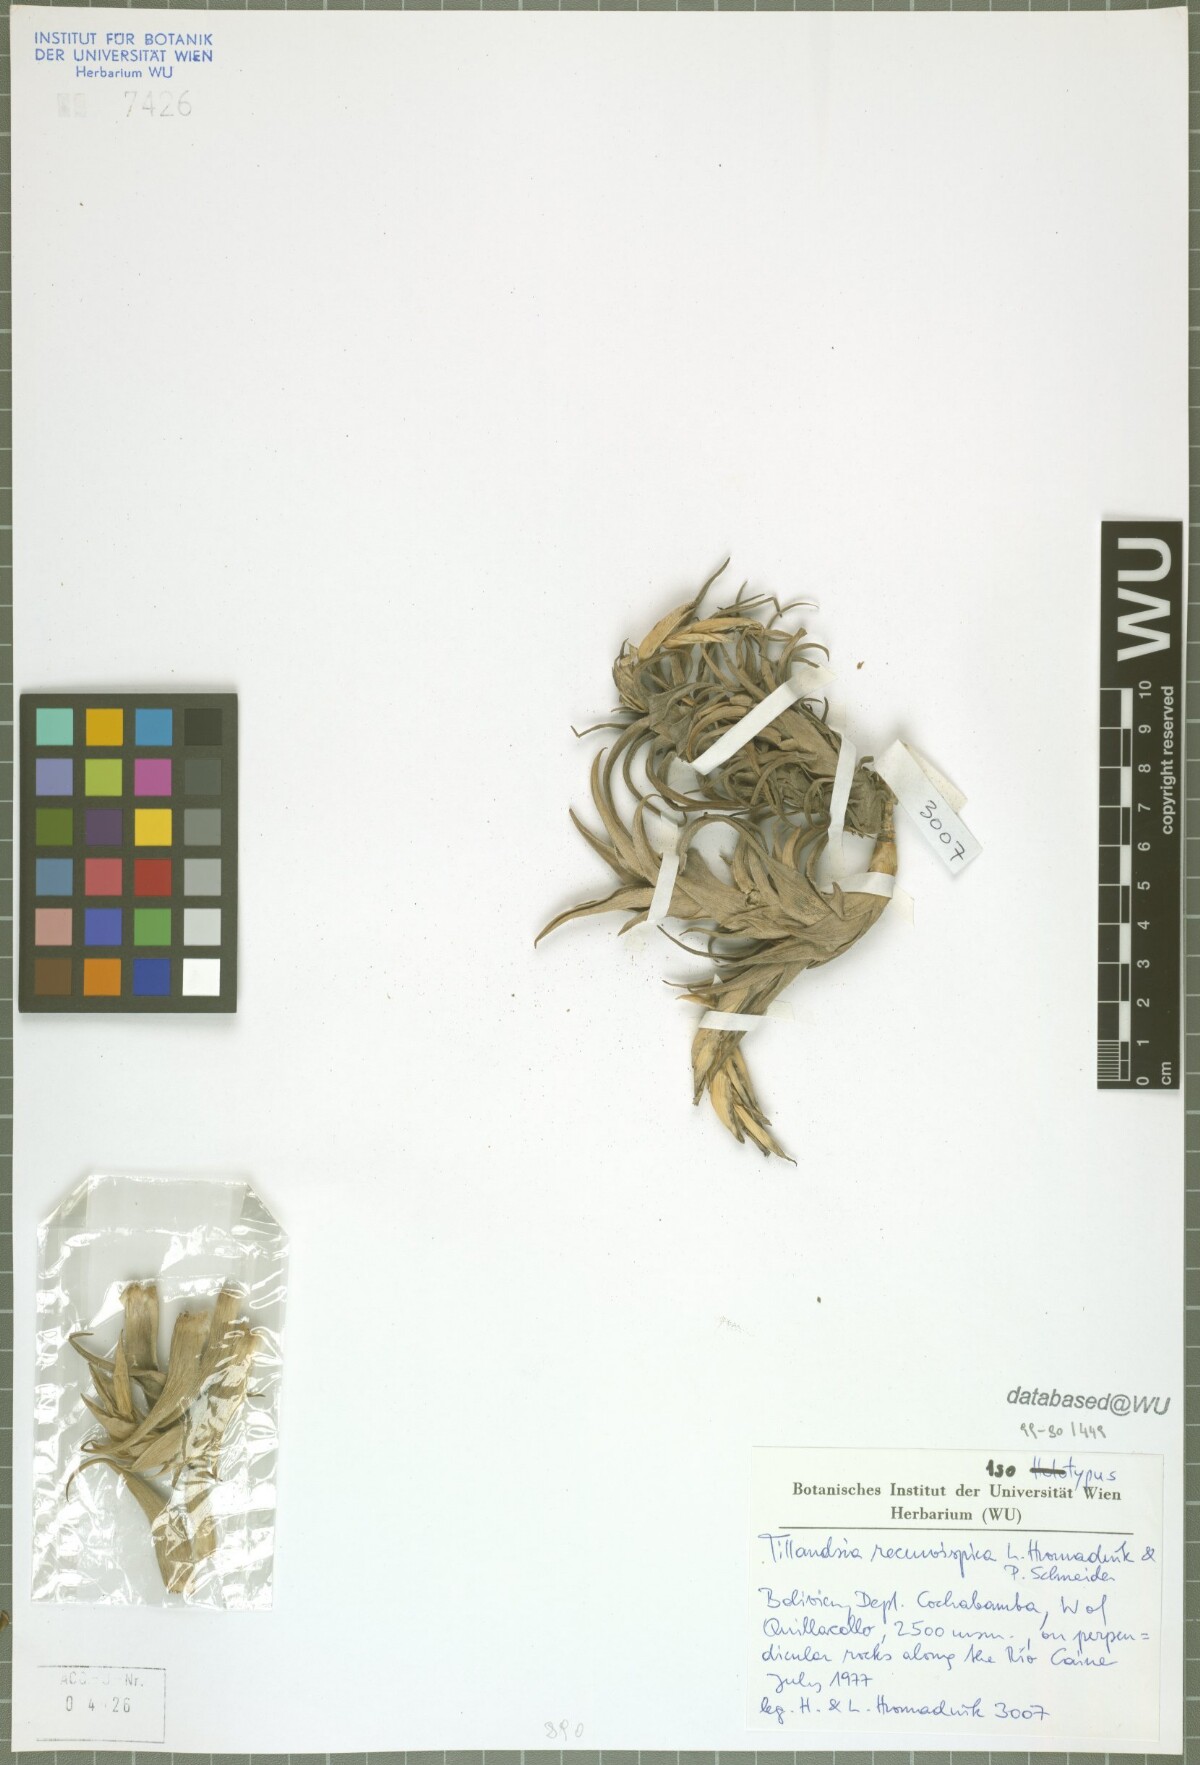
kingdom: Plantae
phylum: Tracheophyta
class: Liliopsida
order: Poales
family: Bromeliaceae
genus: Tillandsia
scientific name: Tillandsia recurvispica
